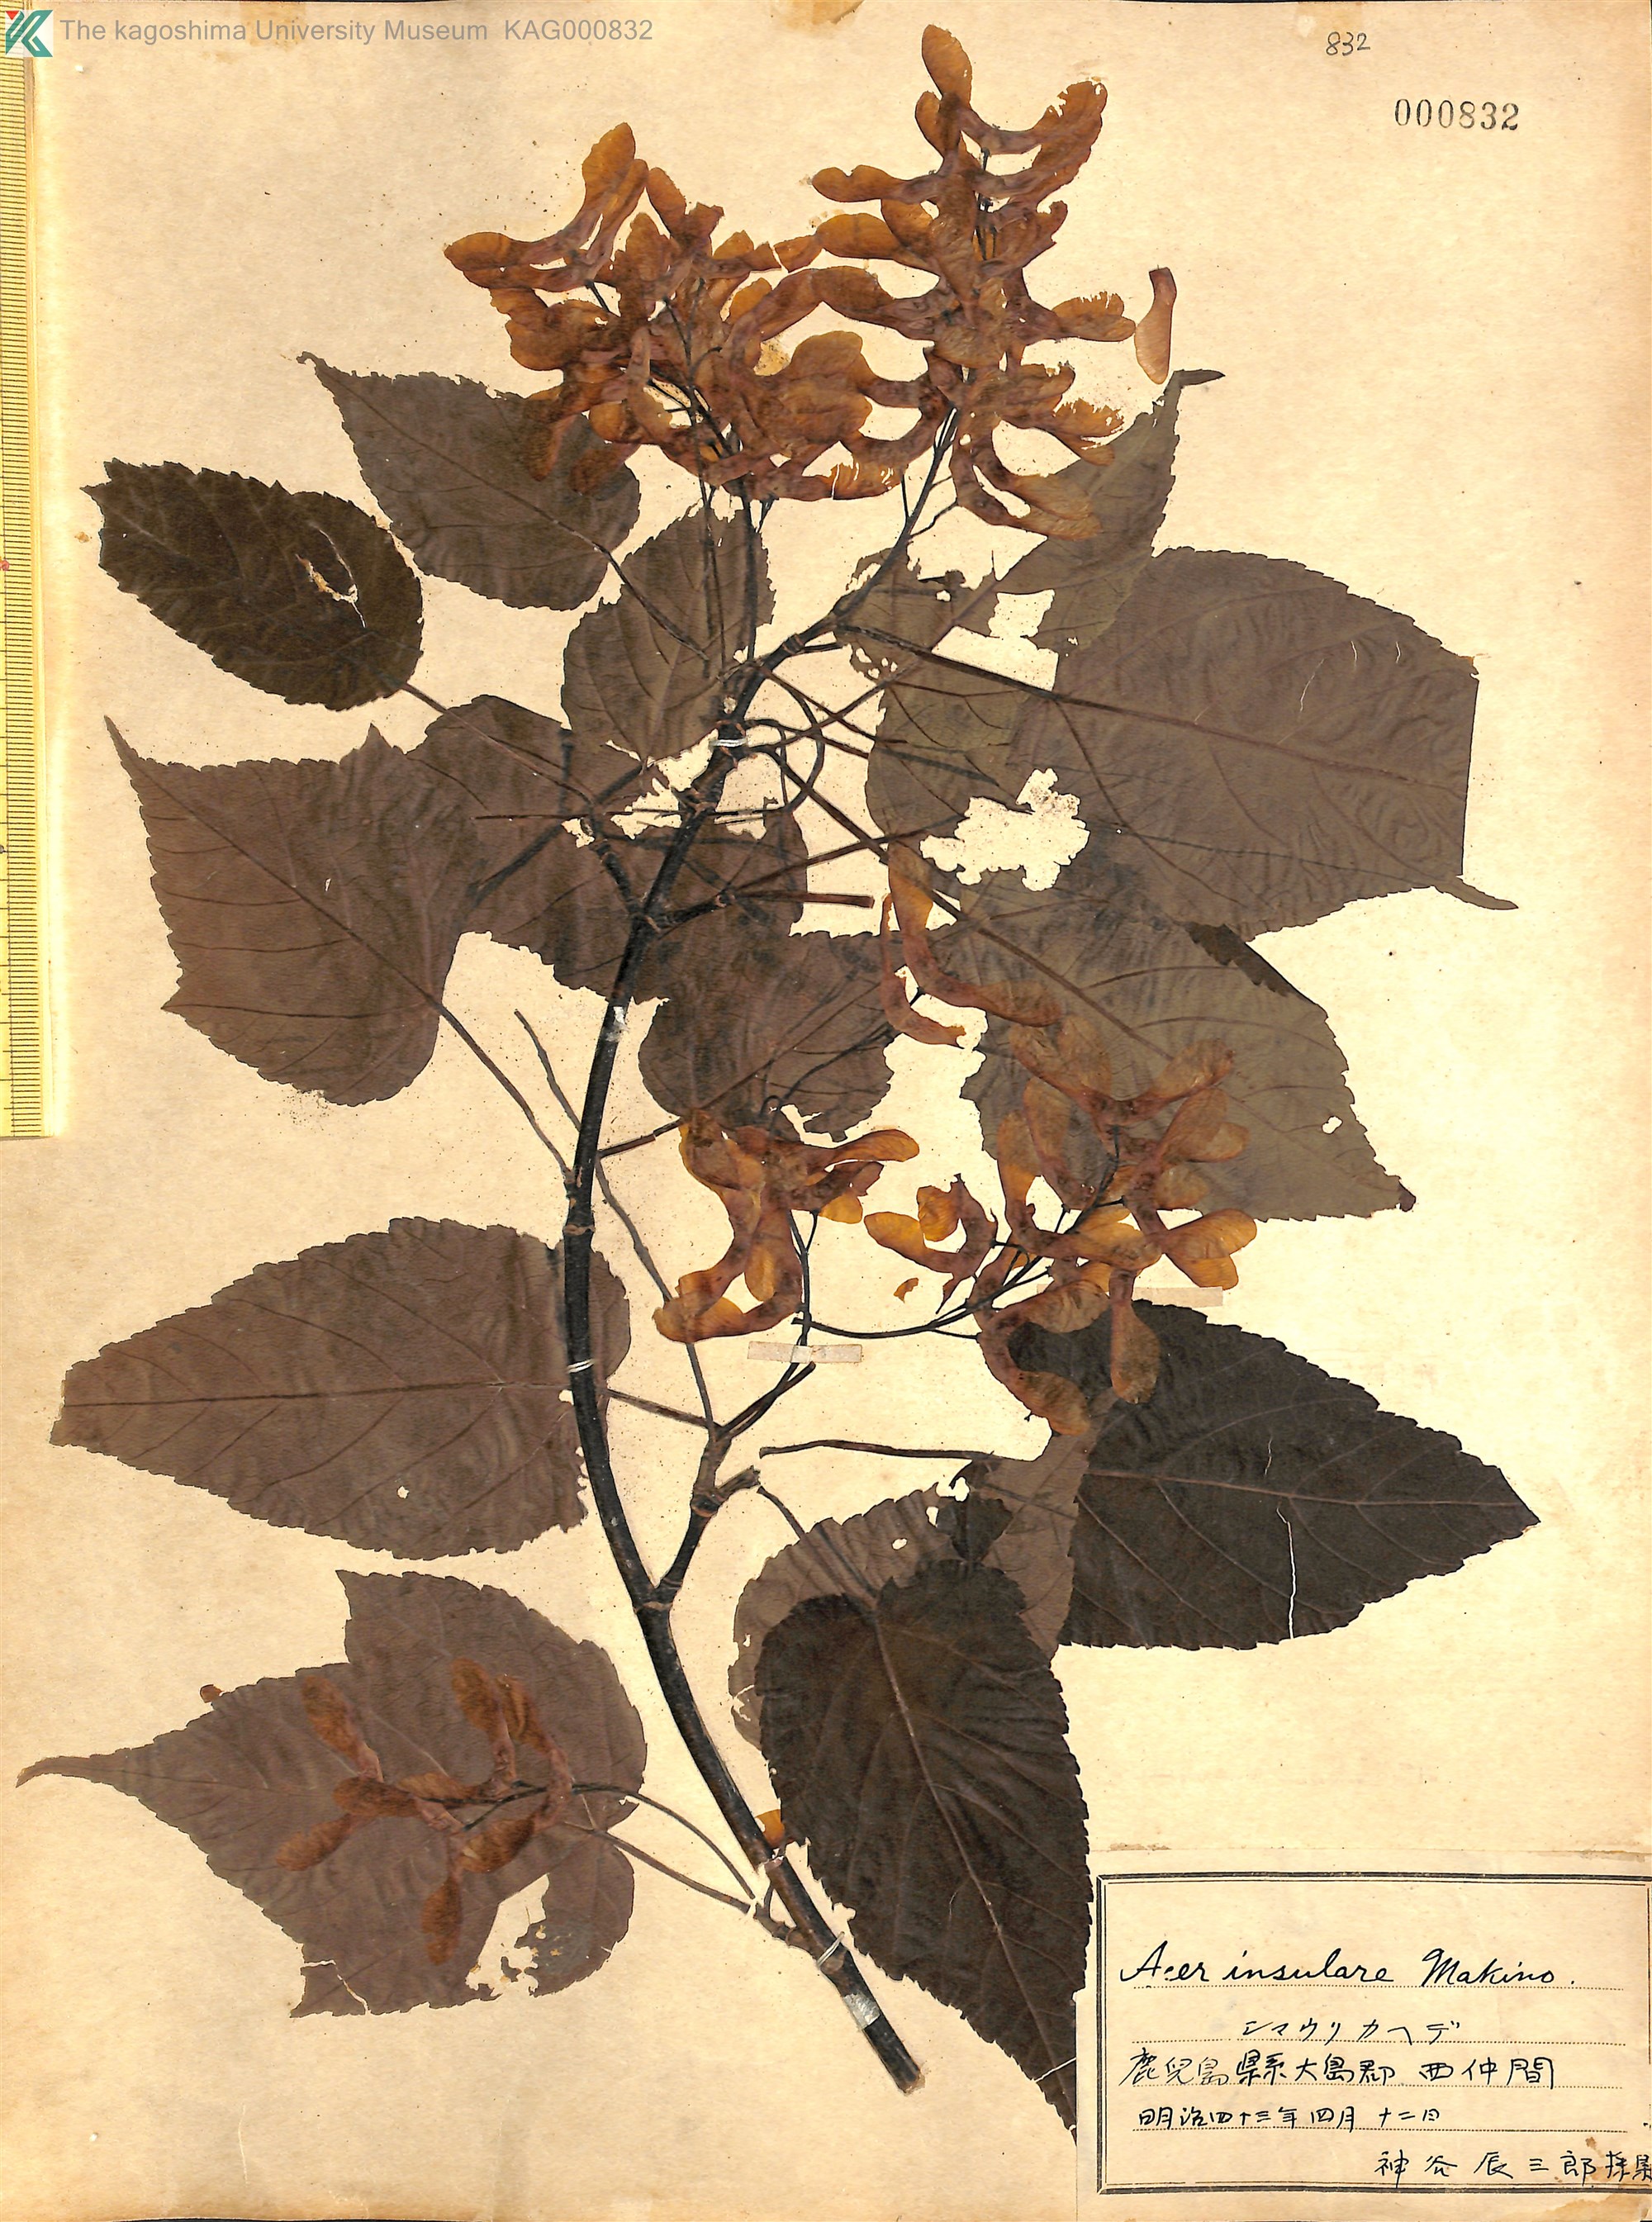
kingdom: Plantae
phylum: Tracheophyta
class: Magnoliopsida
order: Sapindales
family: Sapindaceae
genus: Acer
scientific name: Acer caudatifolium
